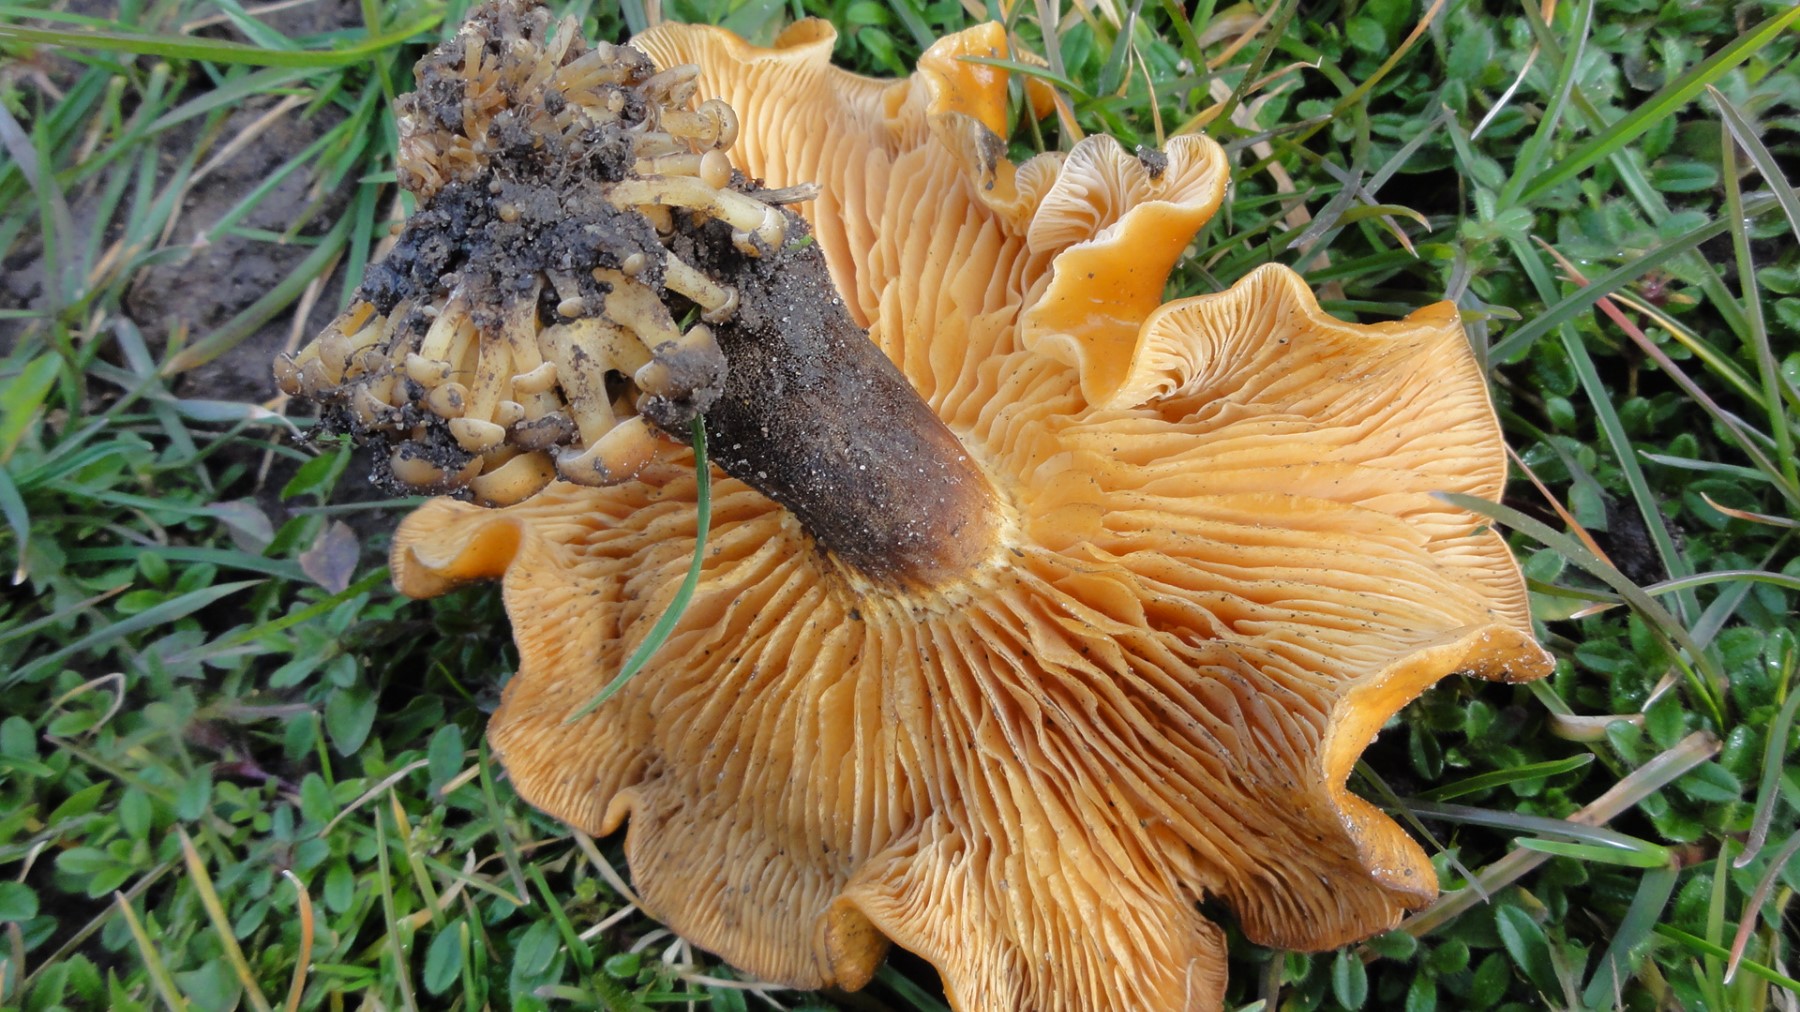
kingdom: Fungi
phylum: Basidiomycota
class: Agaricomycetes
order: Agaricales
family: Physalacriaceae
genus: Flammulina
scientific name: Flammulina velutipes
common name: gul fløjlsfod
